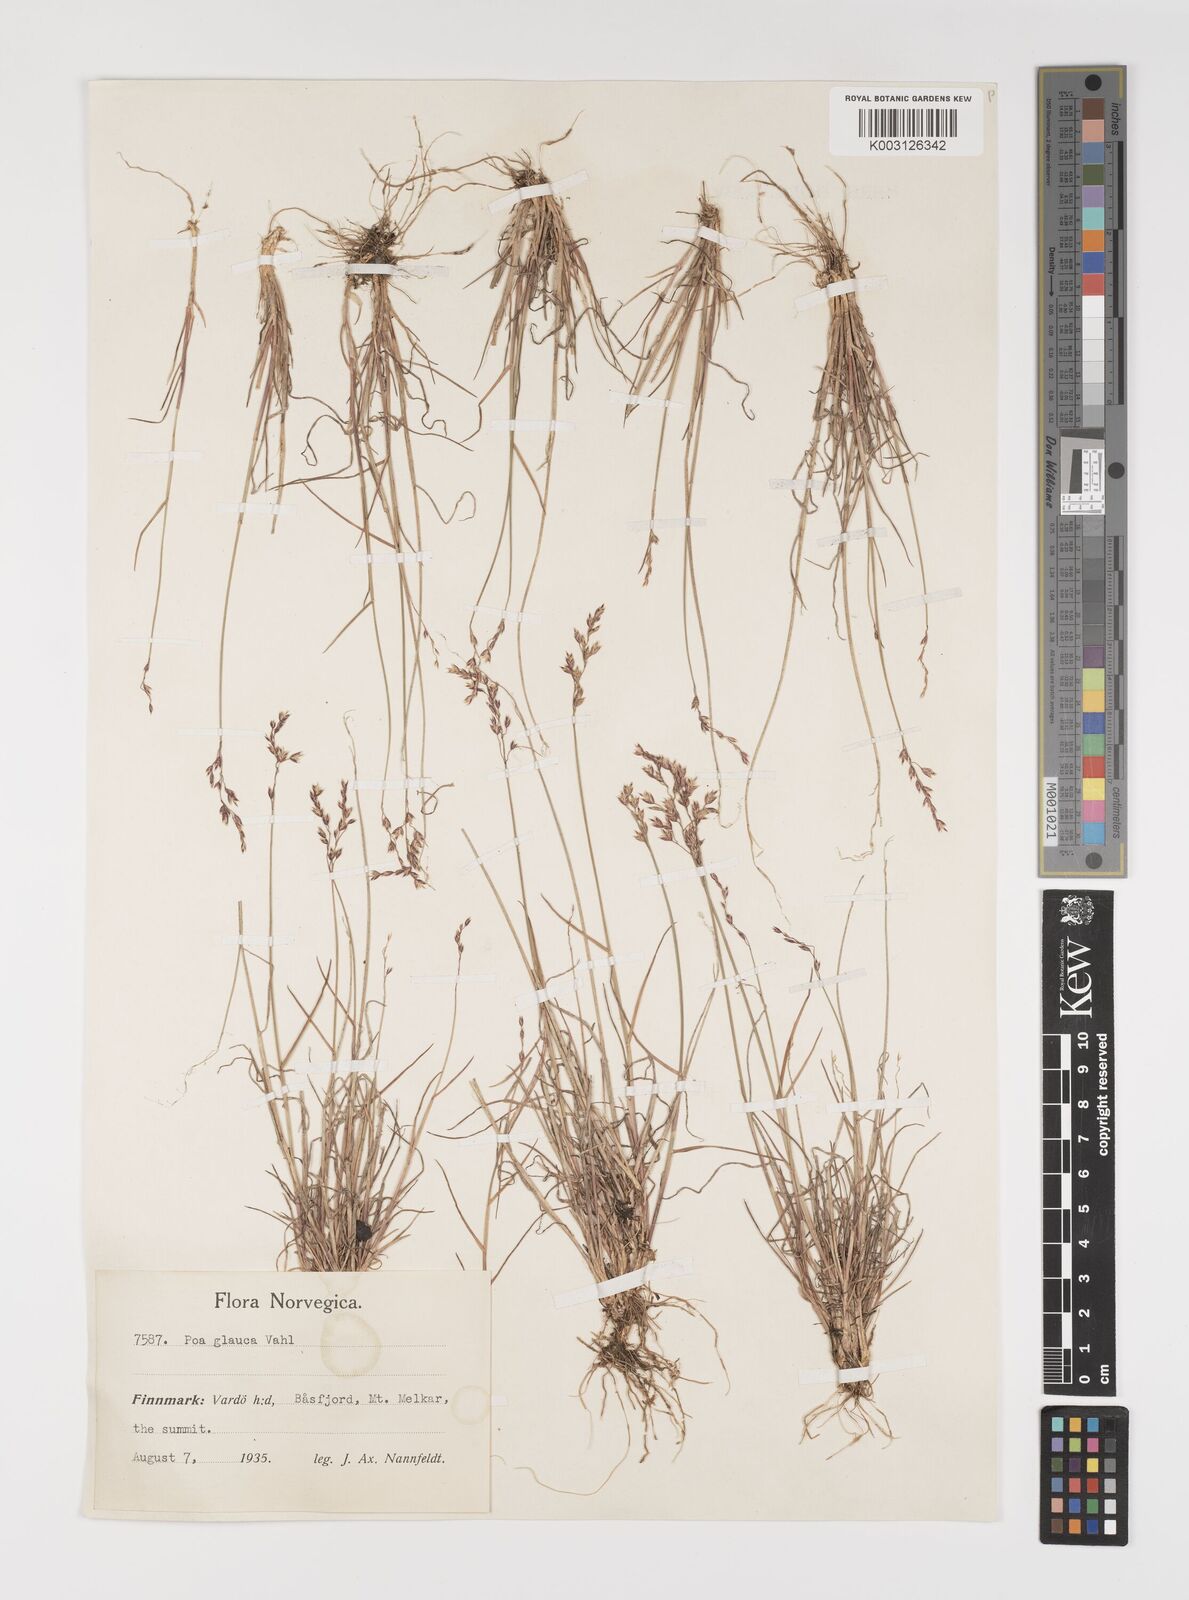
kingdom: Plantae
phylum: Tracheophyta
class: Liliopsida
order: Poales
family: Poaceae
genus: Poa
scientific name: Poa glauca
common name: Glaucous bluegrass
